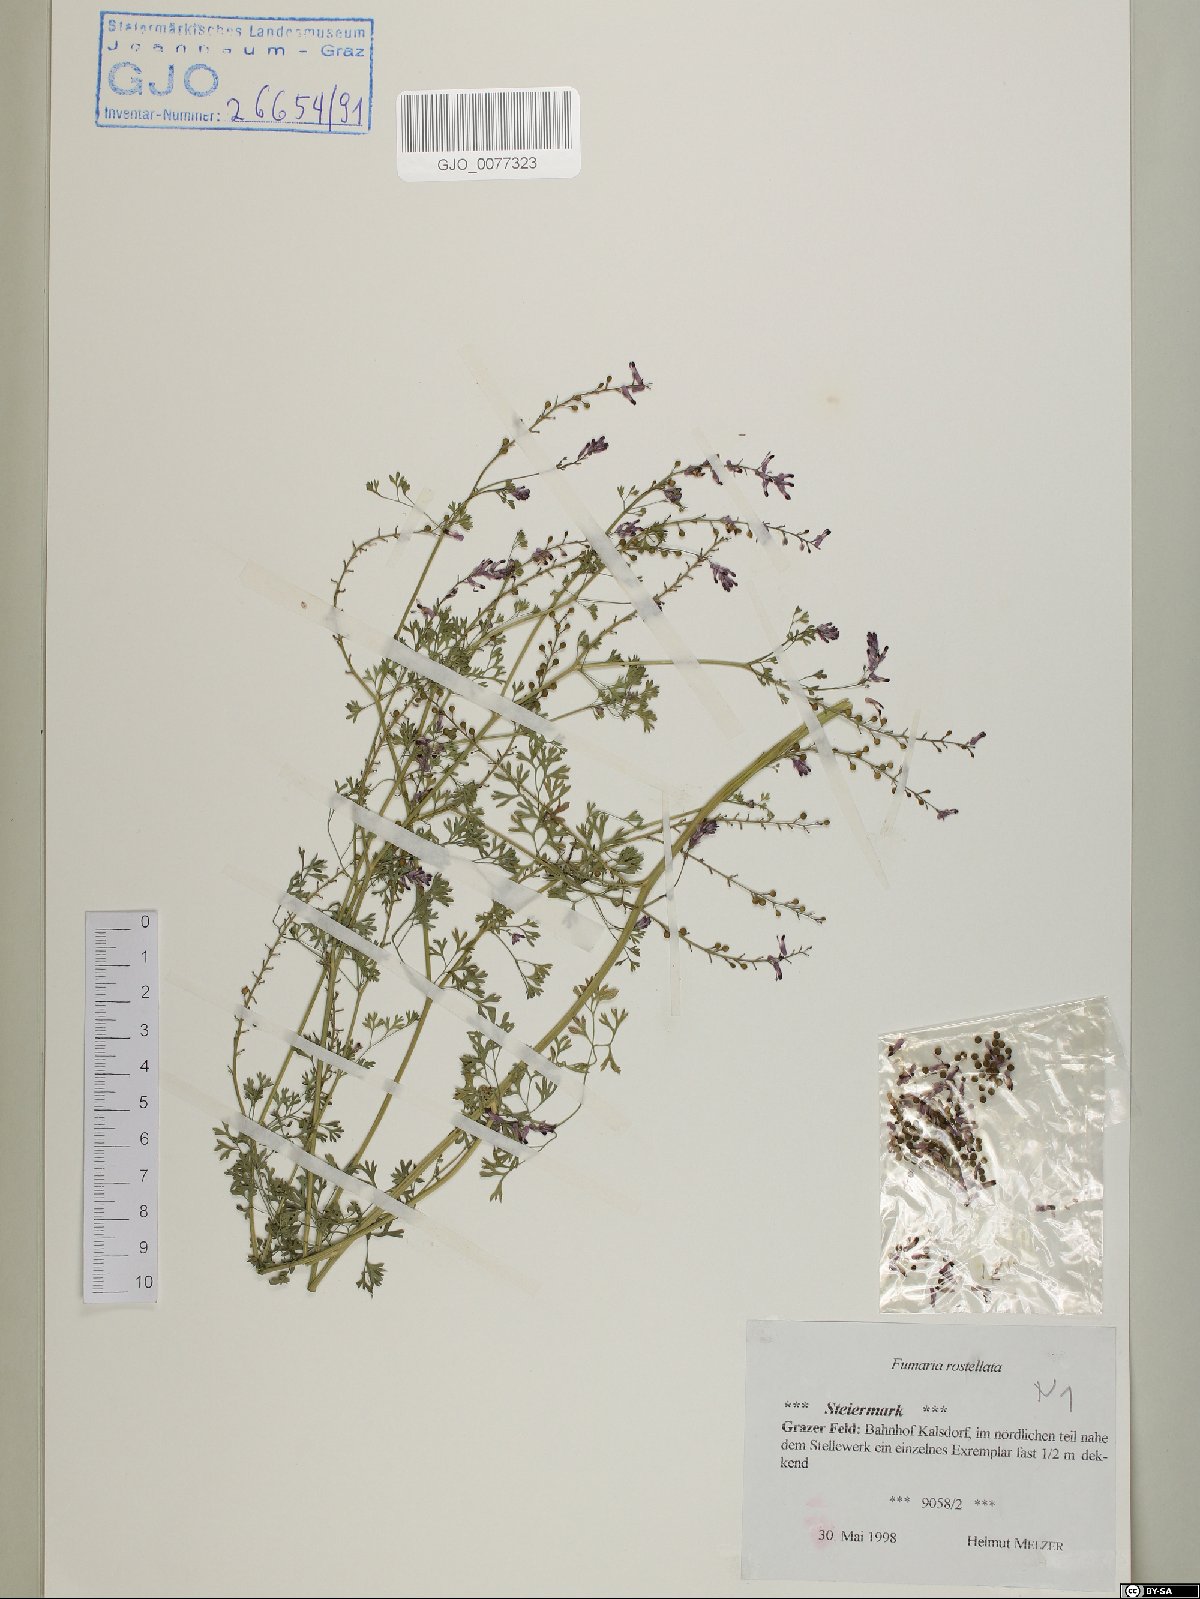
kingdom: Plantae
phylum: Tracheophyta
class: Magnoliopsida
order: Ranunculales
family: Papaveraceae
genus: Fumaria
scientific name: Fumaria rostellata
